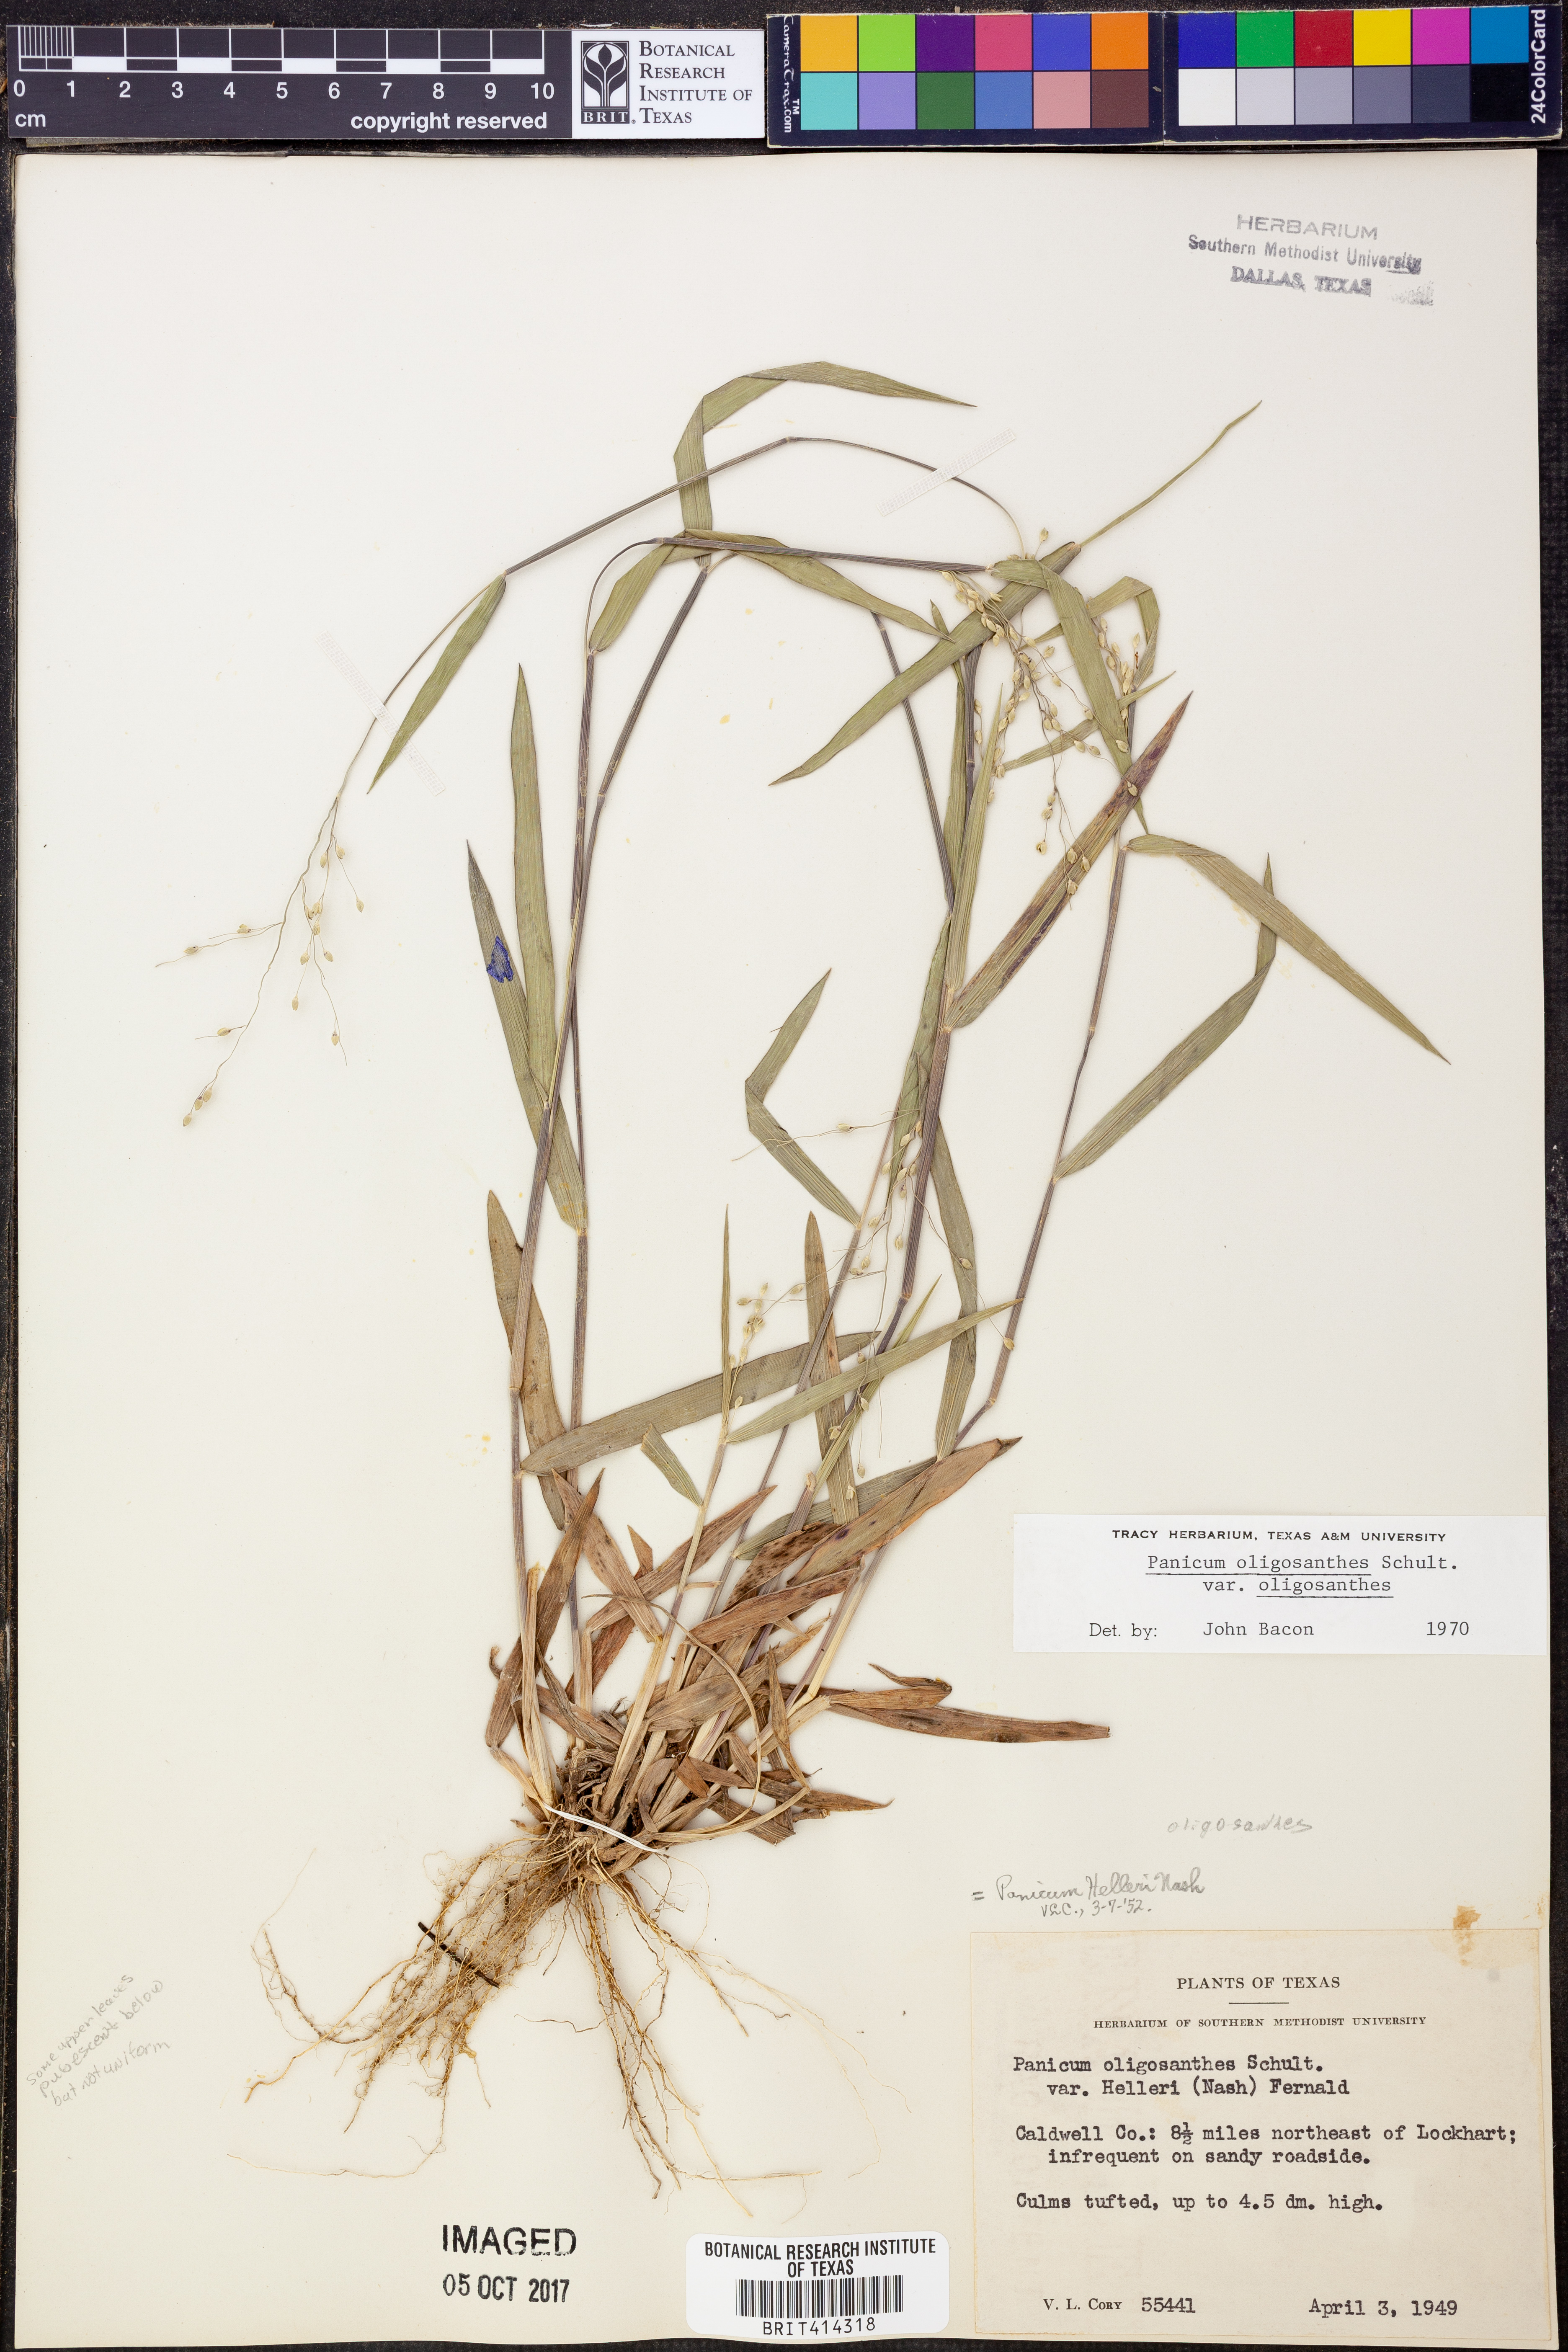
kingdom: Plantae
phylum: Tracheophyta
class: Liliopsida
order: Poales
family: Poaceae
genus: Dichanthelium
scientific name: Dichanthelium oligosanthes
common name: Few-anther obscuregrass
